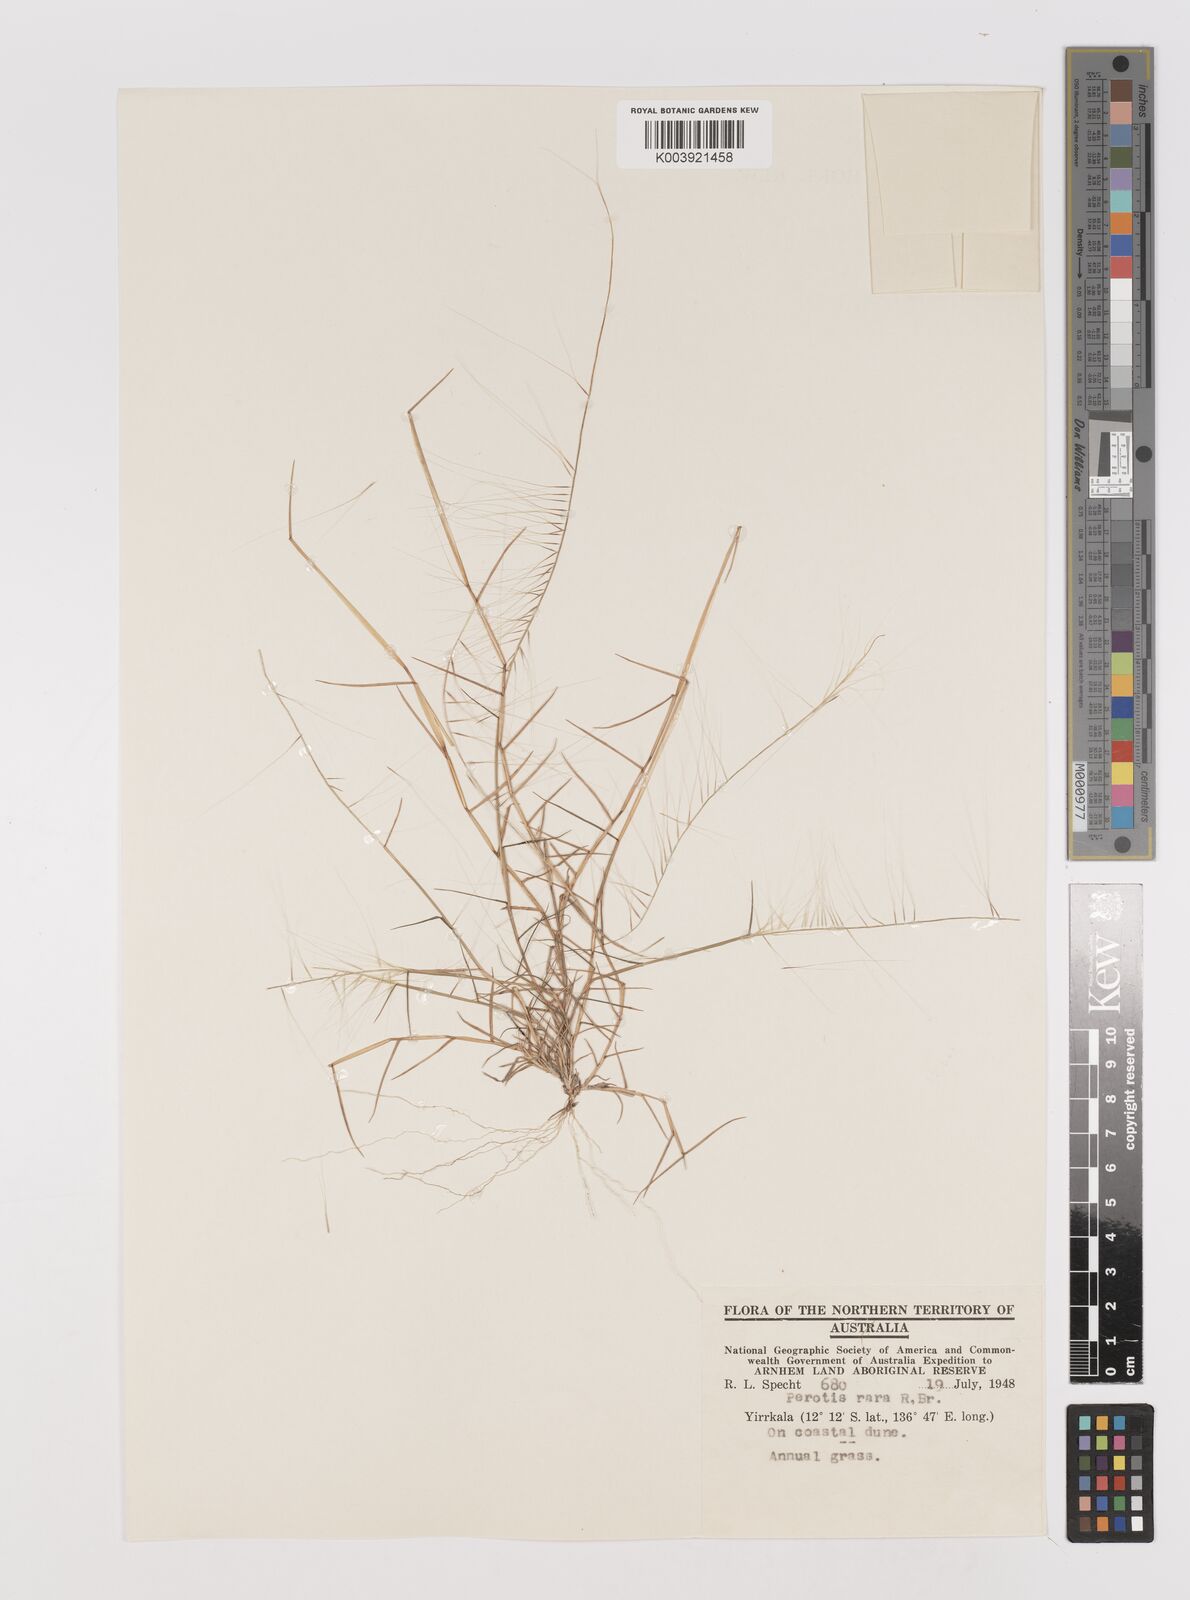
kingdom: Plantae
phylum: Tracheophyta
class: Liliopsida
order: Poales
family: Poaceae
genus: Perotis
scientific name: Perotis rara
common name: Comet grass
